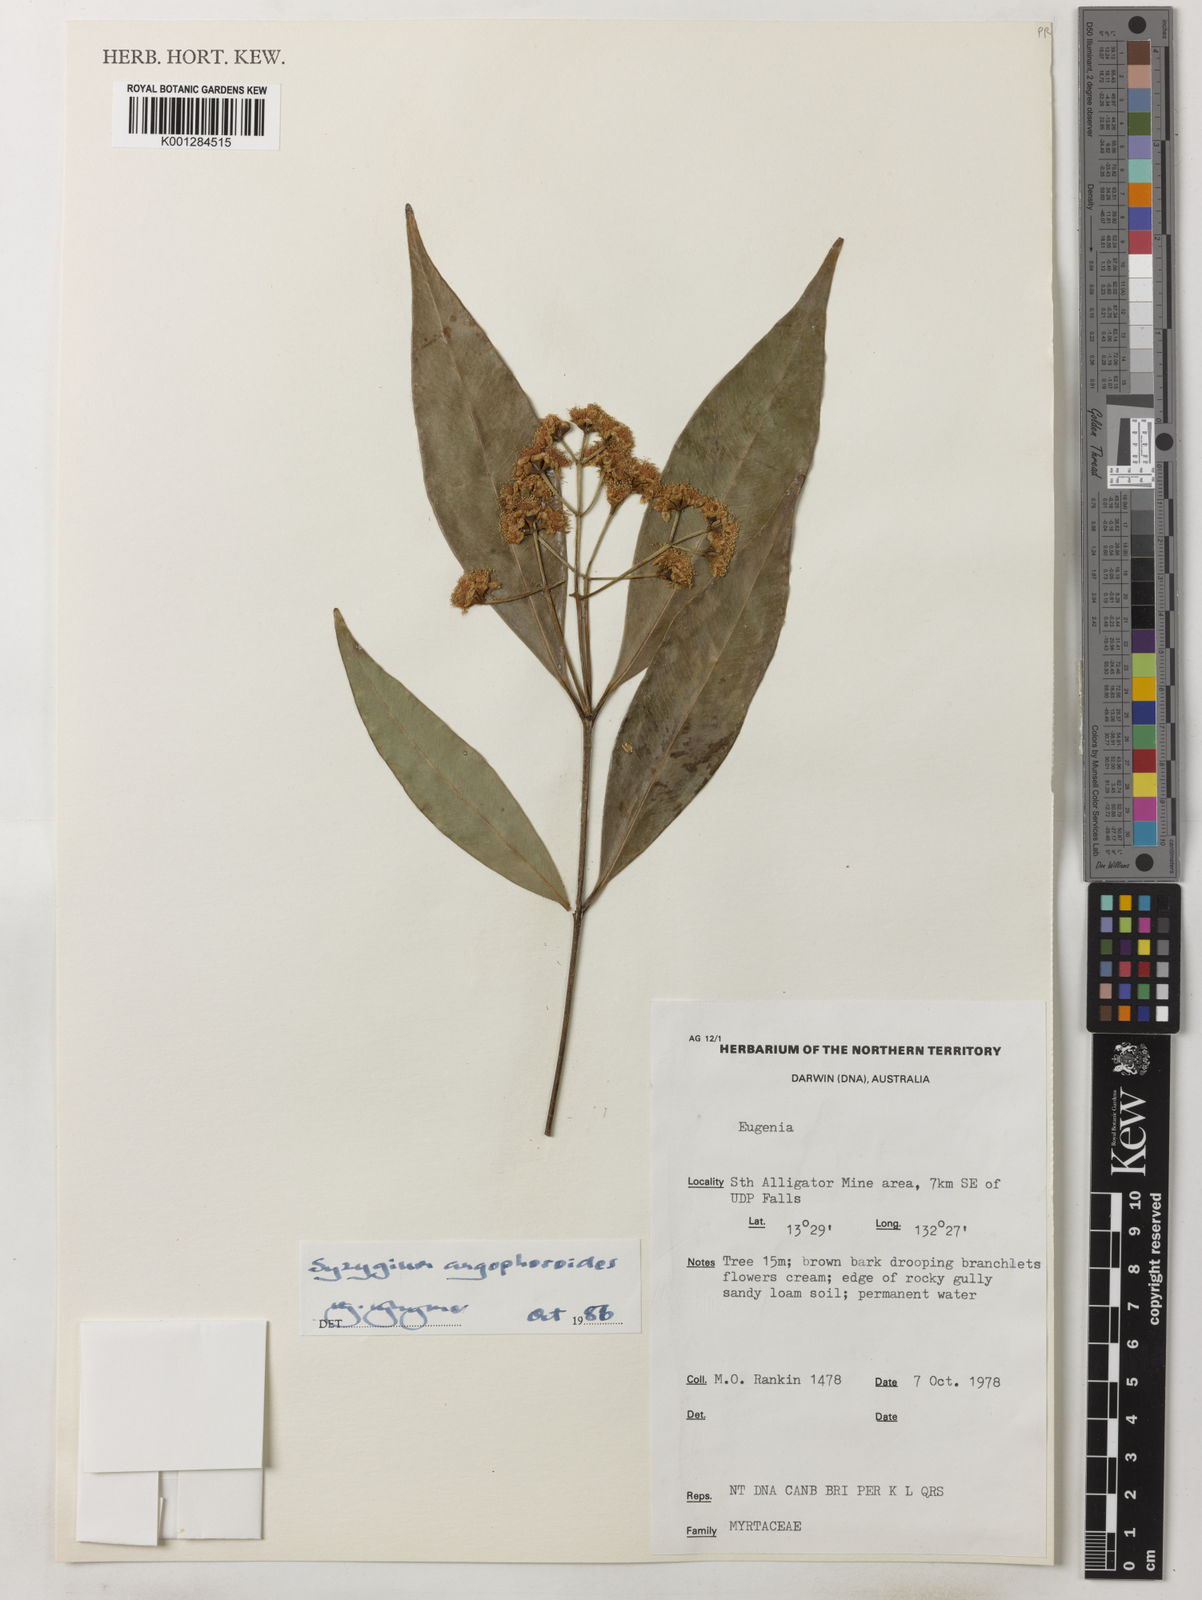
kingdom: Plantae
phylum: Tracheophyta
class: Magnoliopsida
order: Myrtales
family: Myrtaceae
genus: Syzygium
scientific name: Syzygium angophoroides
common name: Swamp satinash
